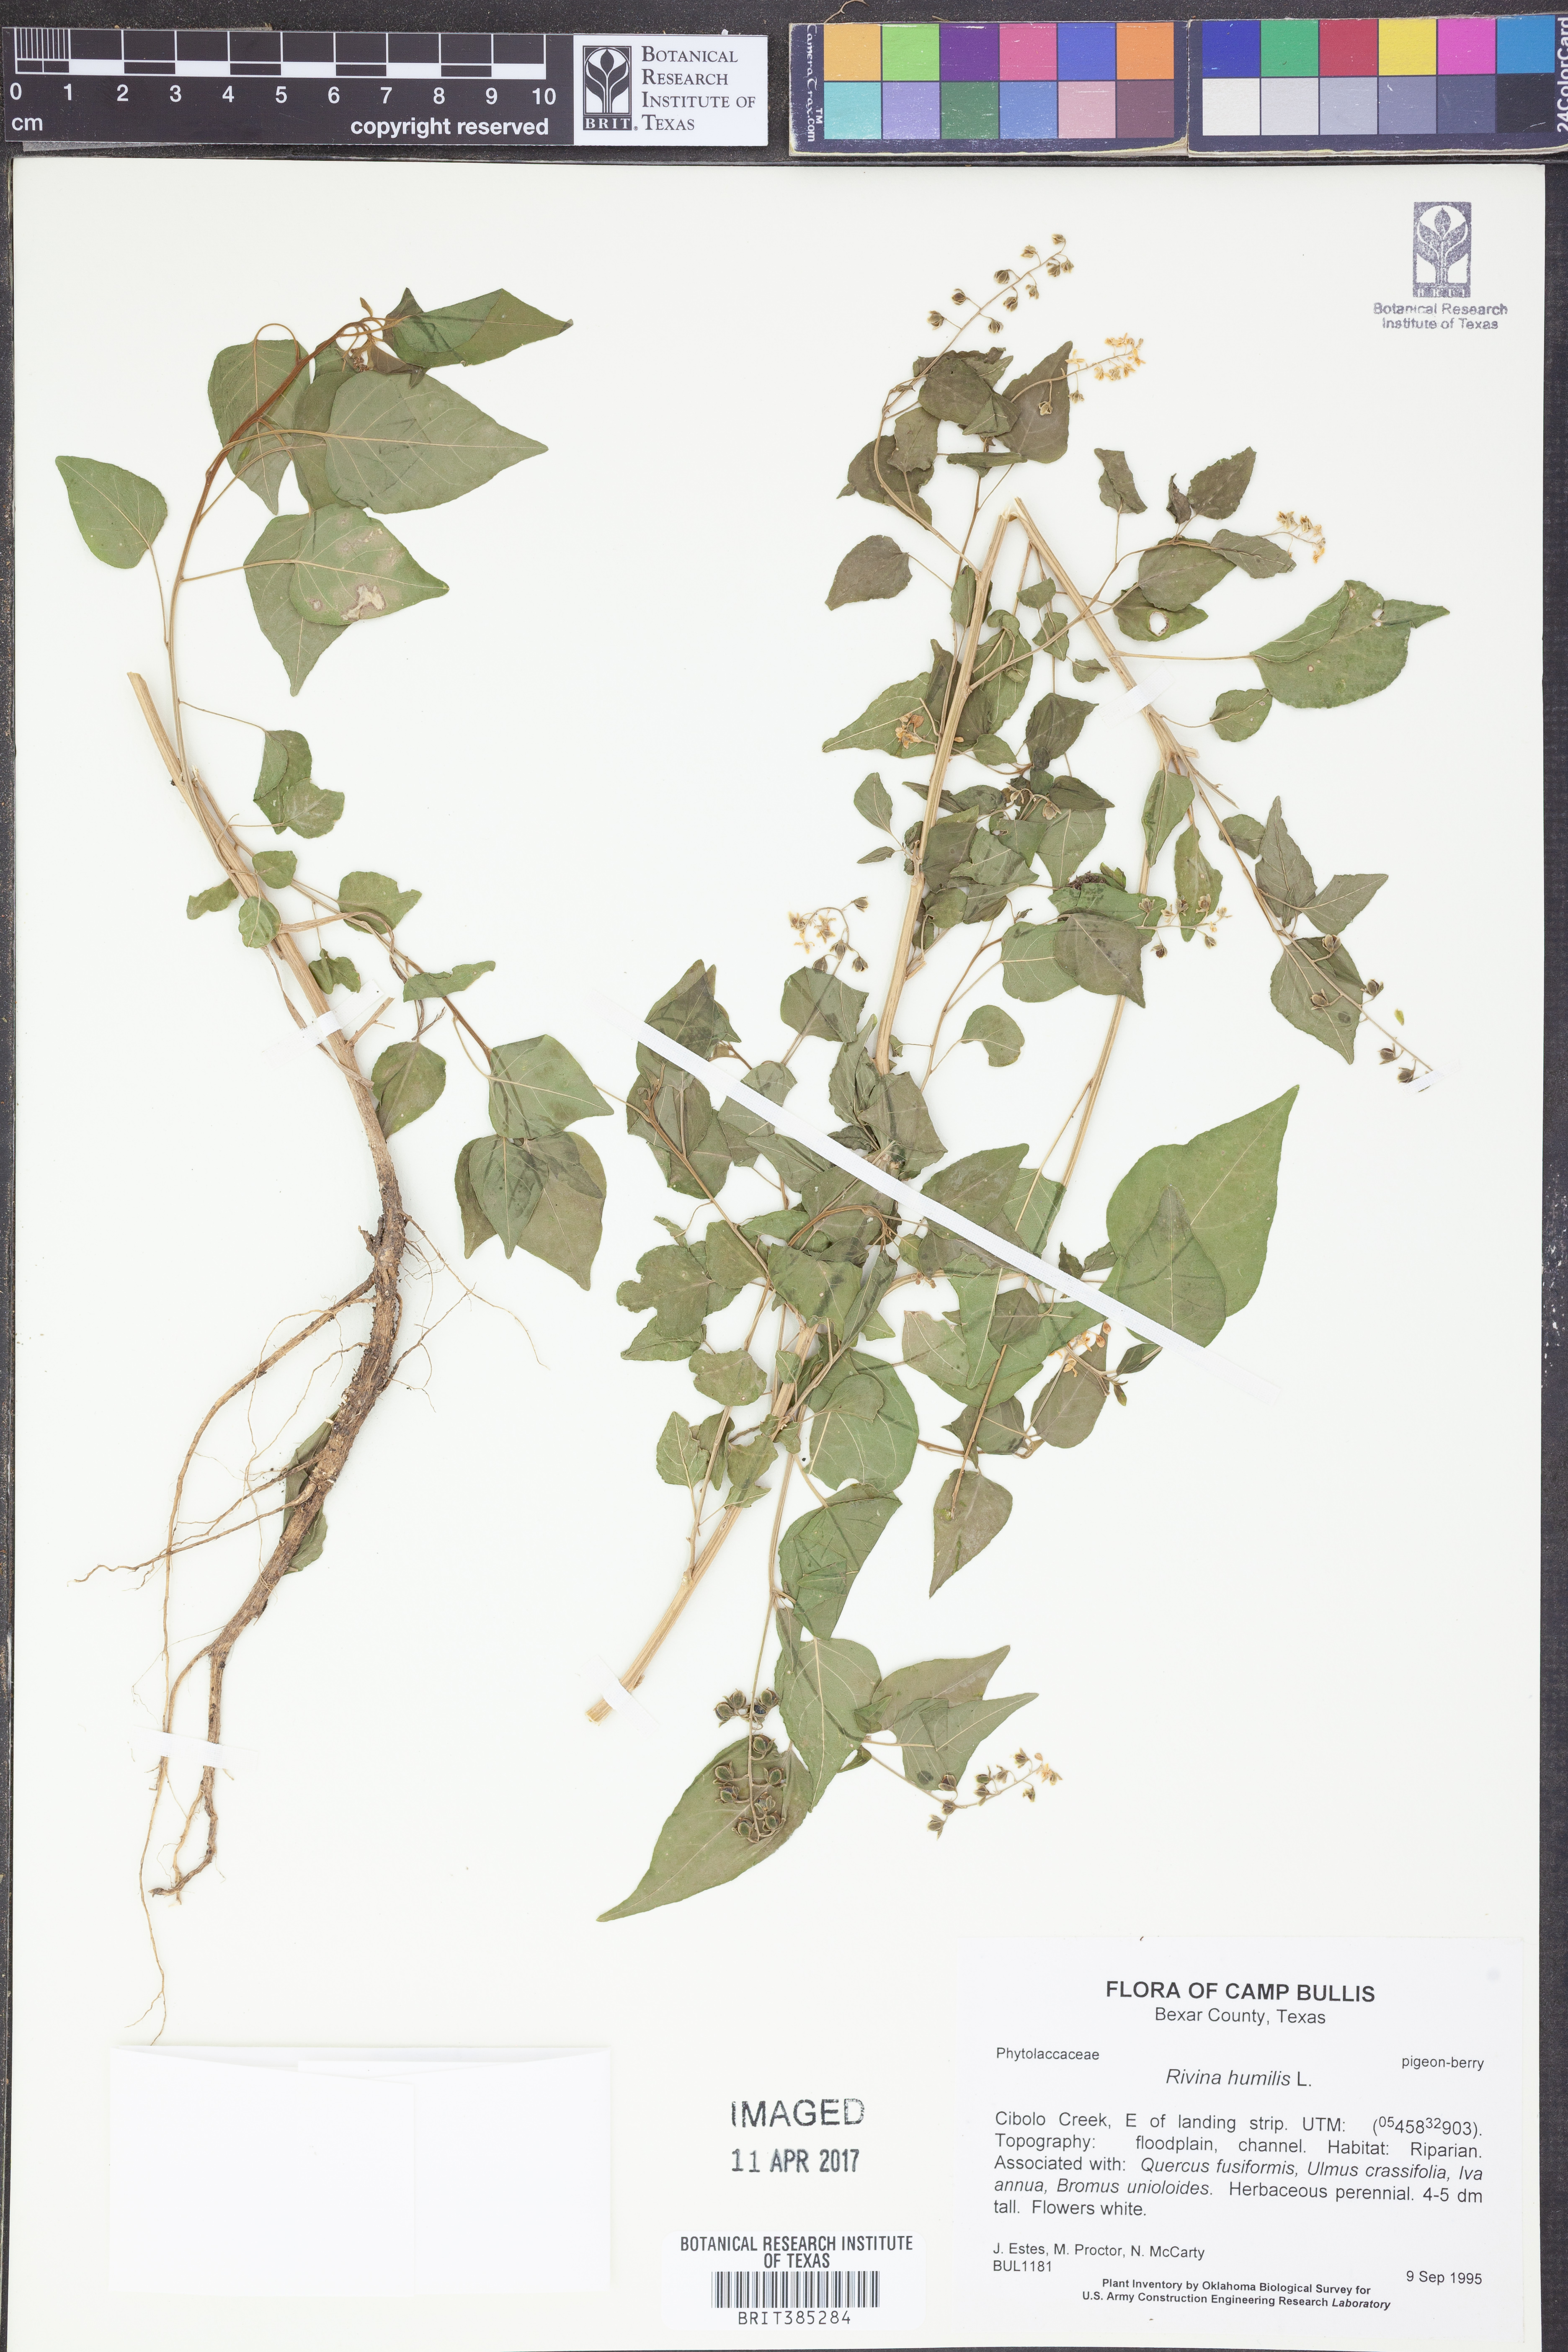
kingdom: Plantae
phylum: Tracheophyta
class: Magnoliopsida
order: Caryophyllales
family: Phytolaccaceae
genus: Rivina
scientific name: Rivina humilis
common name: Rougeplant
